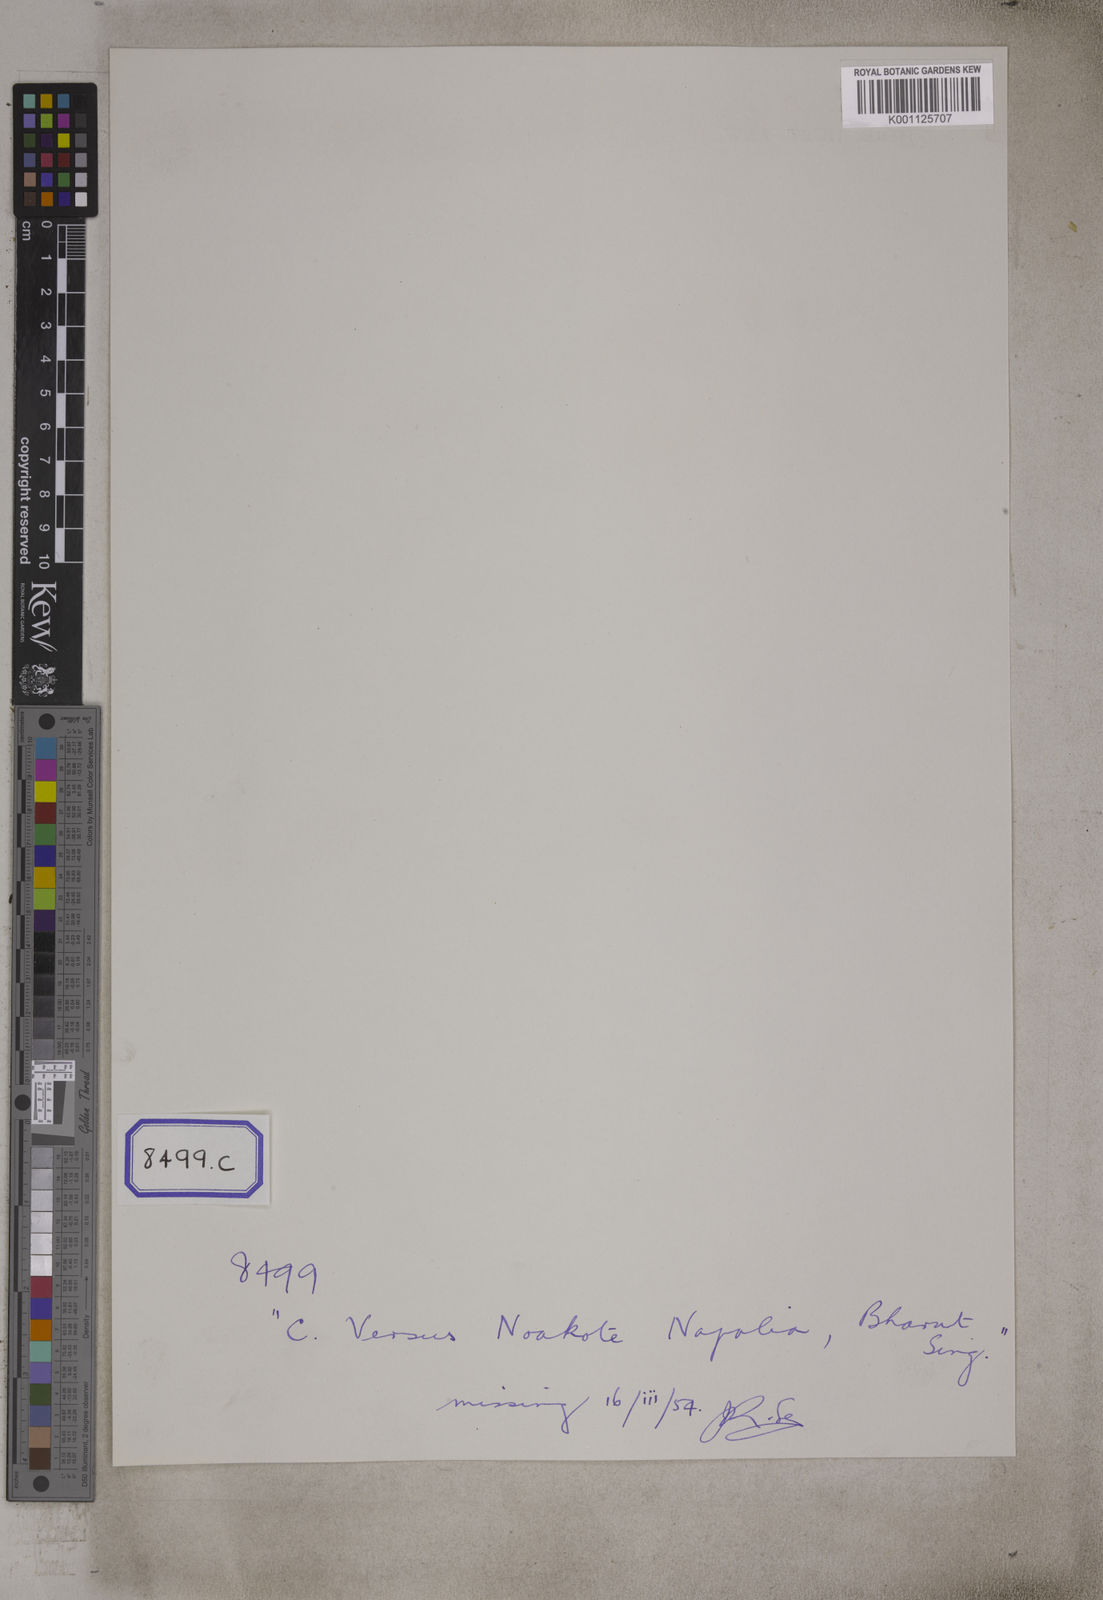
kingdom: Plantae
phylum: Tracheophyta
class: Magnoliopsida
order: Sapindales
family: Anacardiaceae
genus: Pegia
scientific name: Pegia nitida
